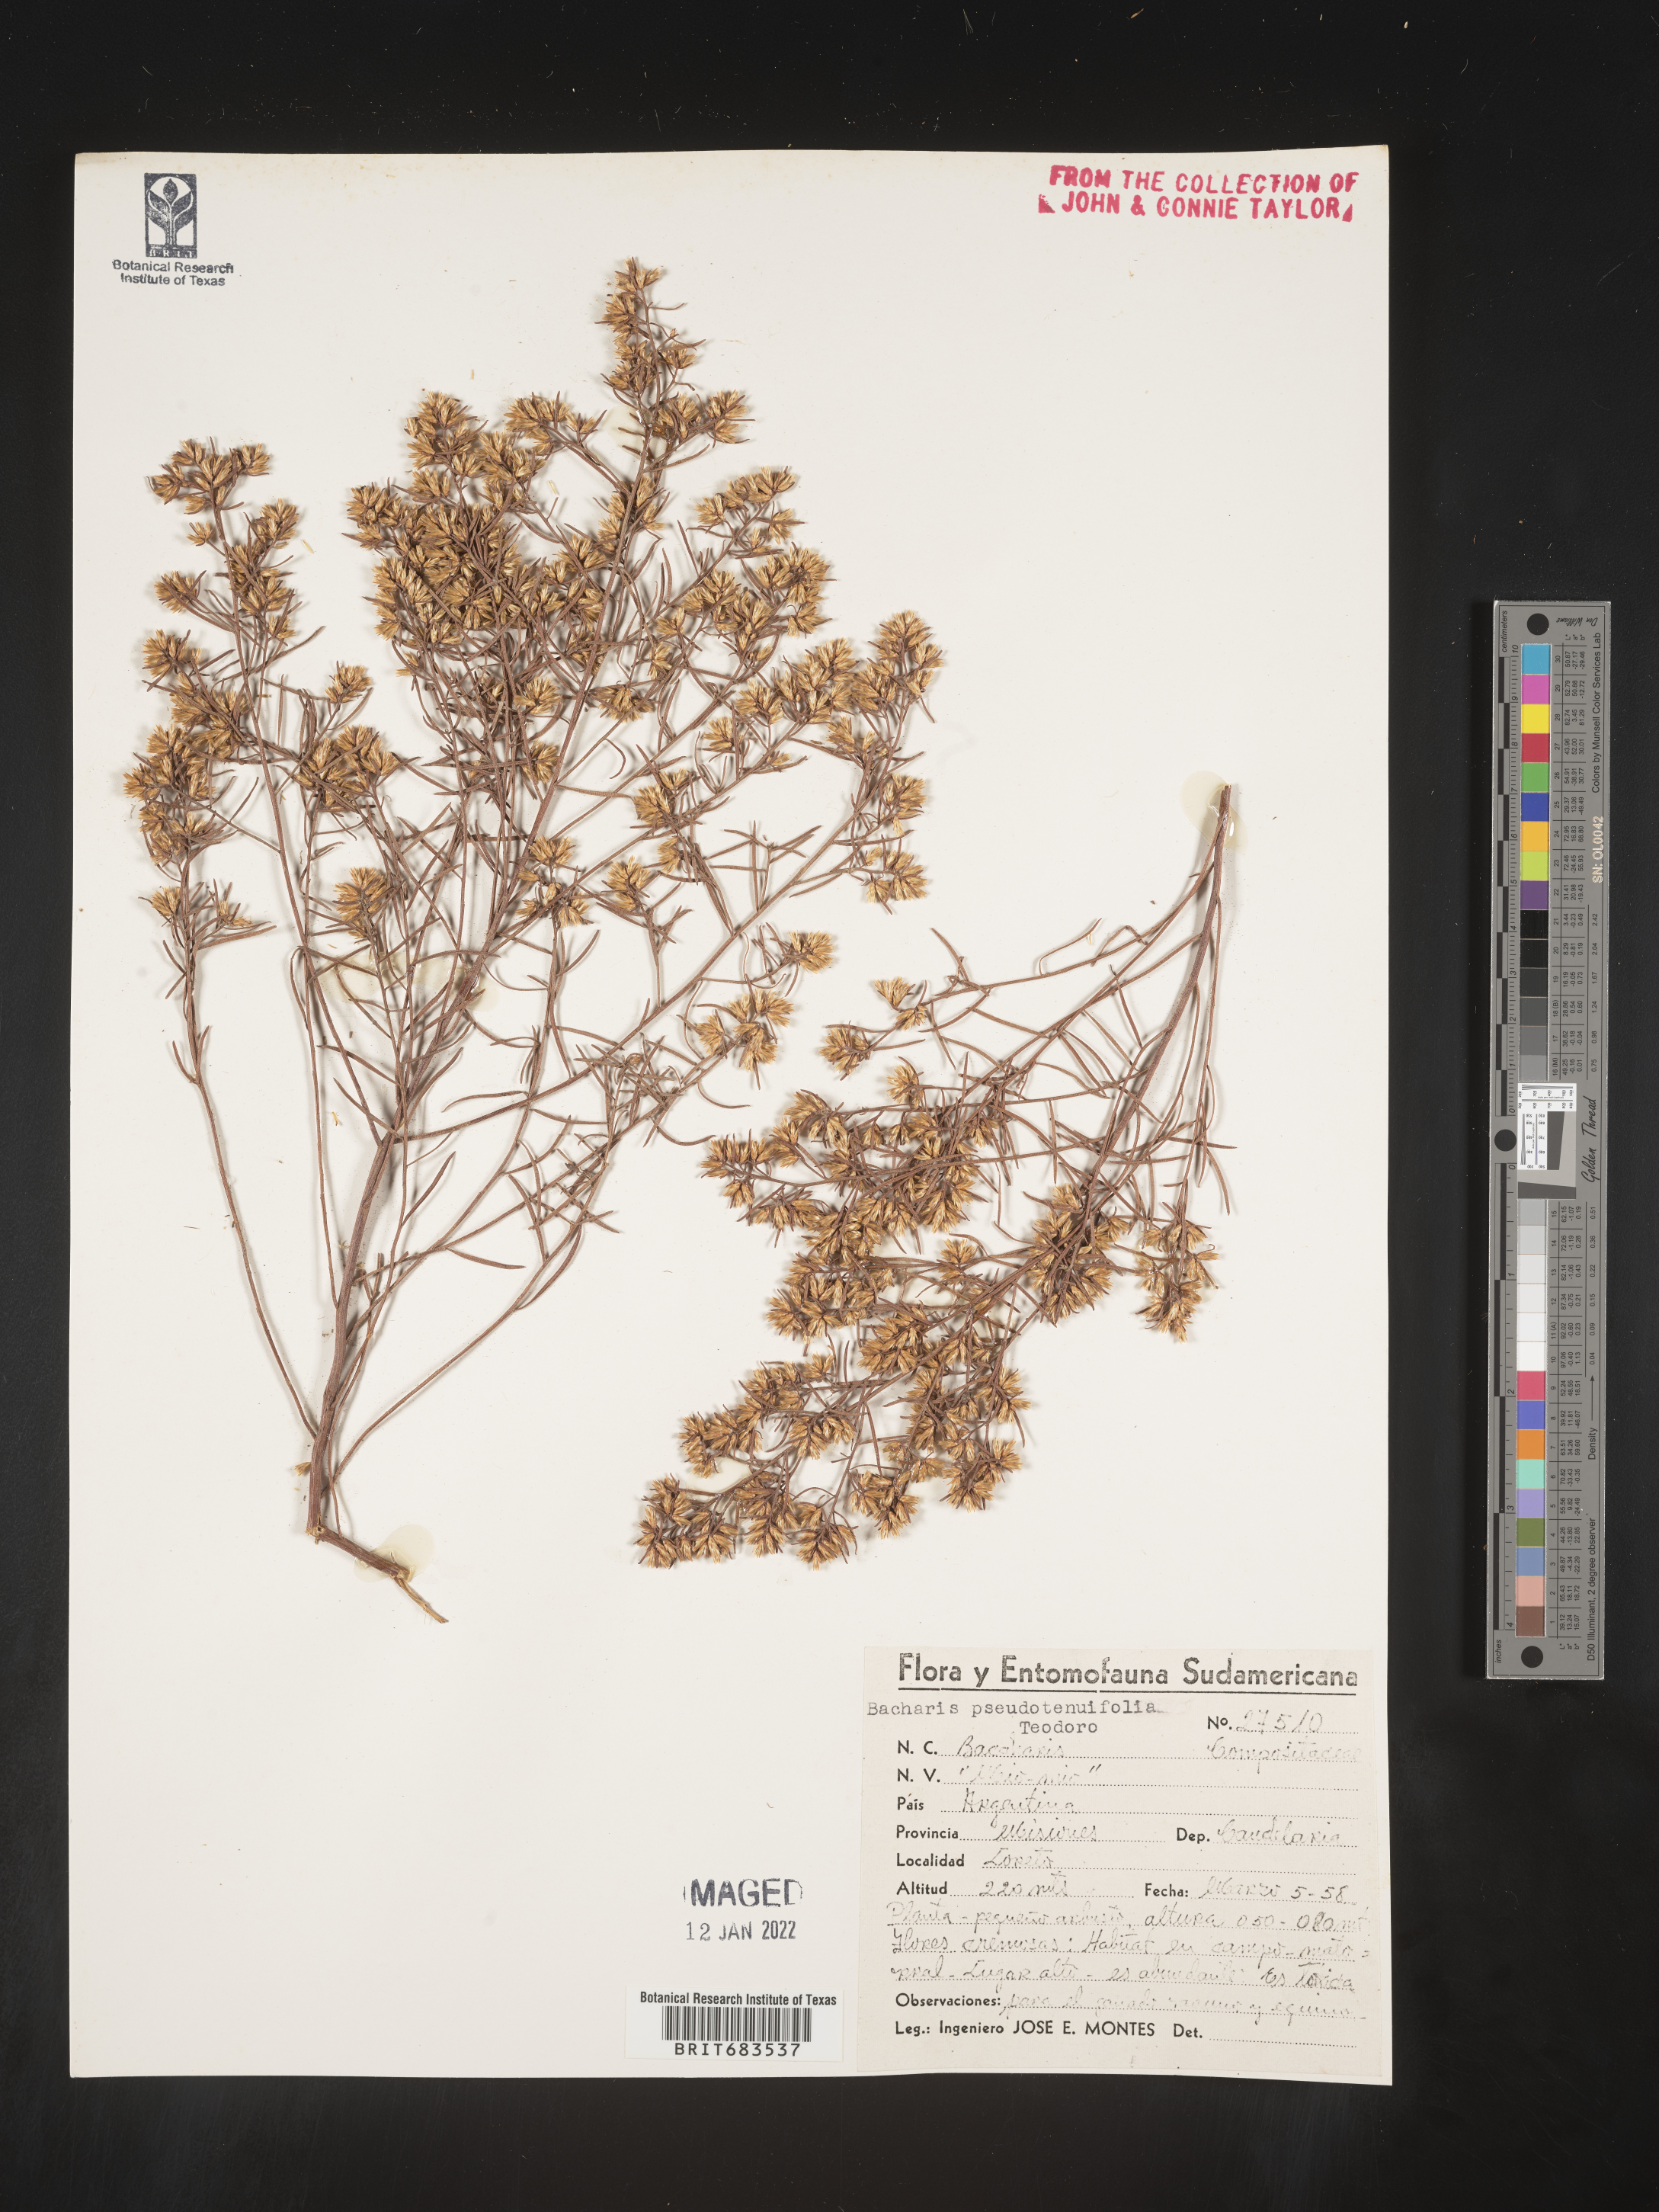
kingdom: Plantae
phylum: Tracheophyta
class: Magnoliopsida
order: Asterales
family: Asteraceae
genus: Baccharis
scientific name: Baccharis
